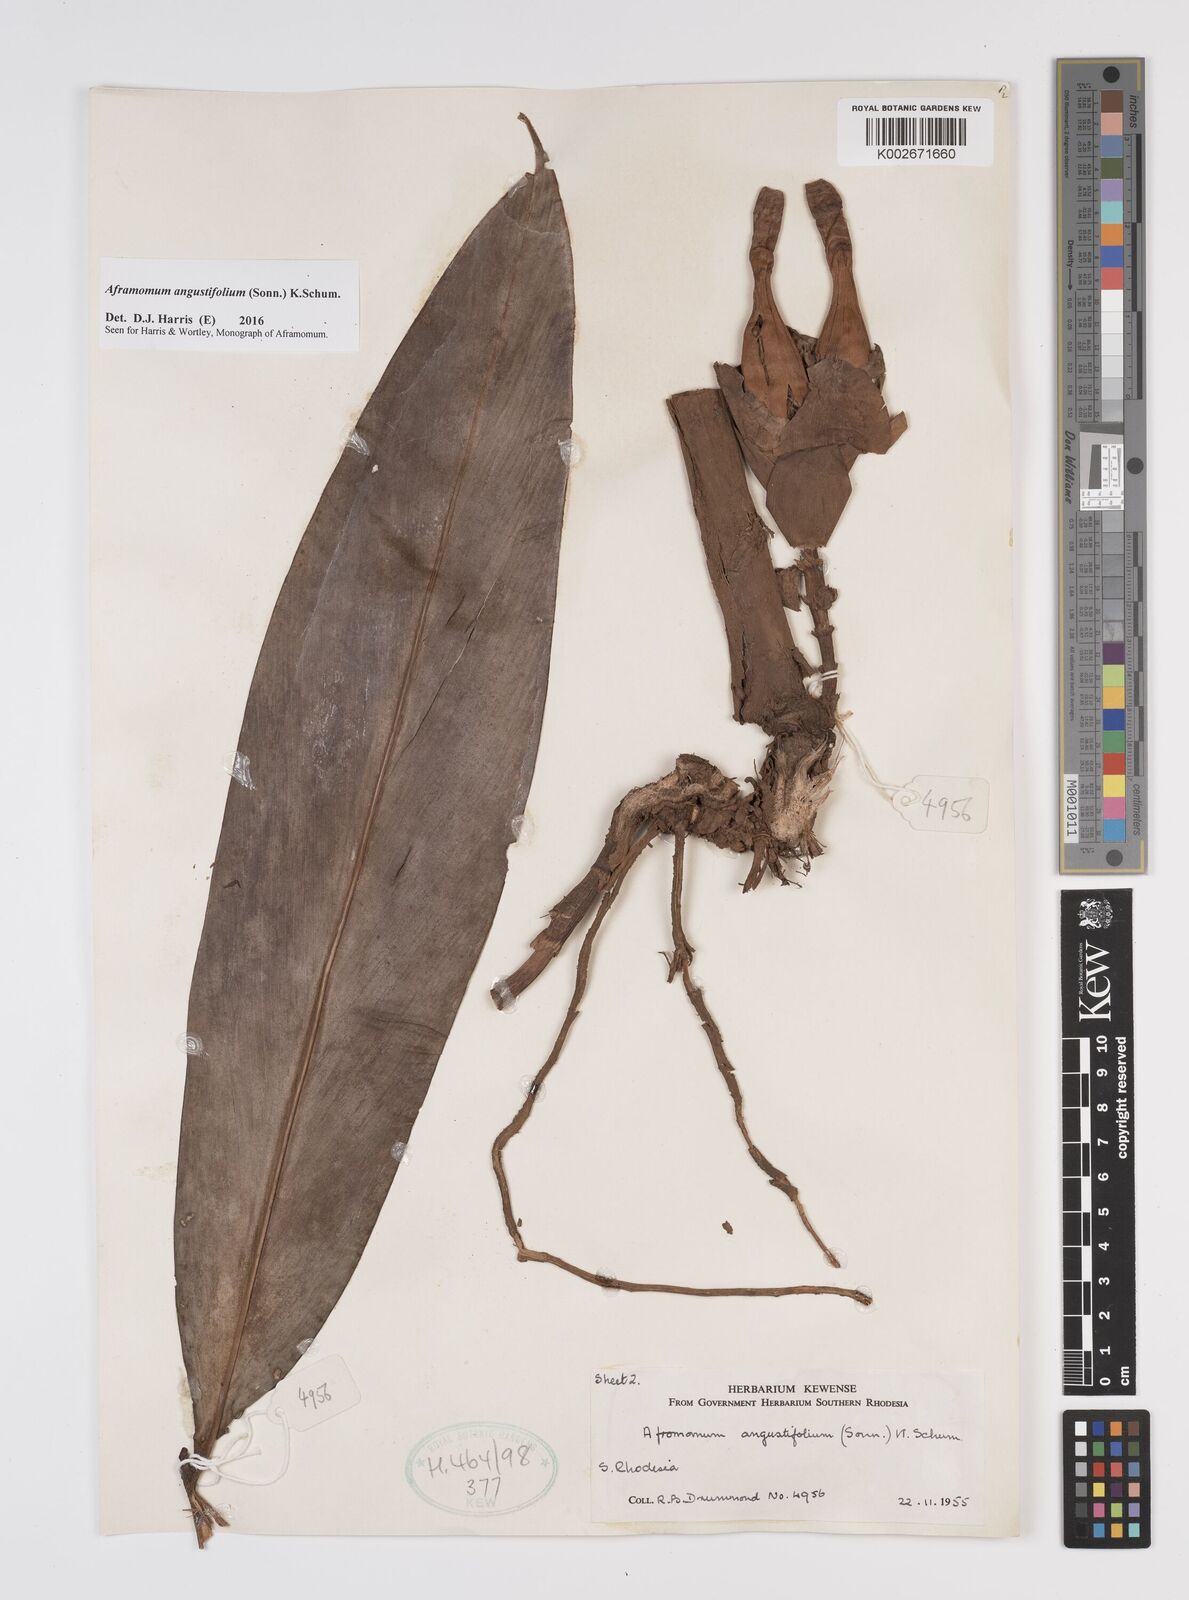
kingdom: Plantae
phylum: Tracheophyta
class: Liliopsida
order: Zingiberales
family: Zingiberaceae
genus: Aframomum
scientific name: Aframomum
